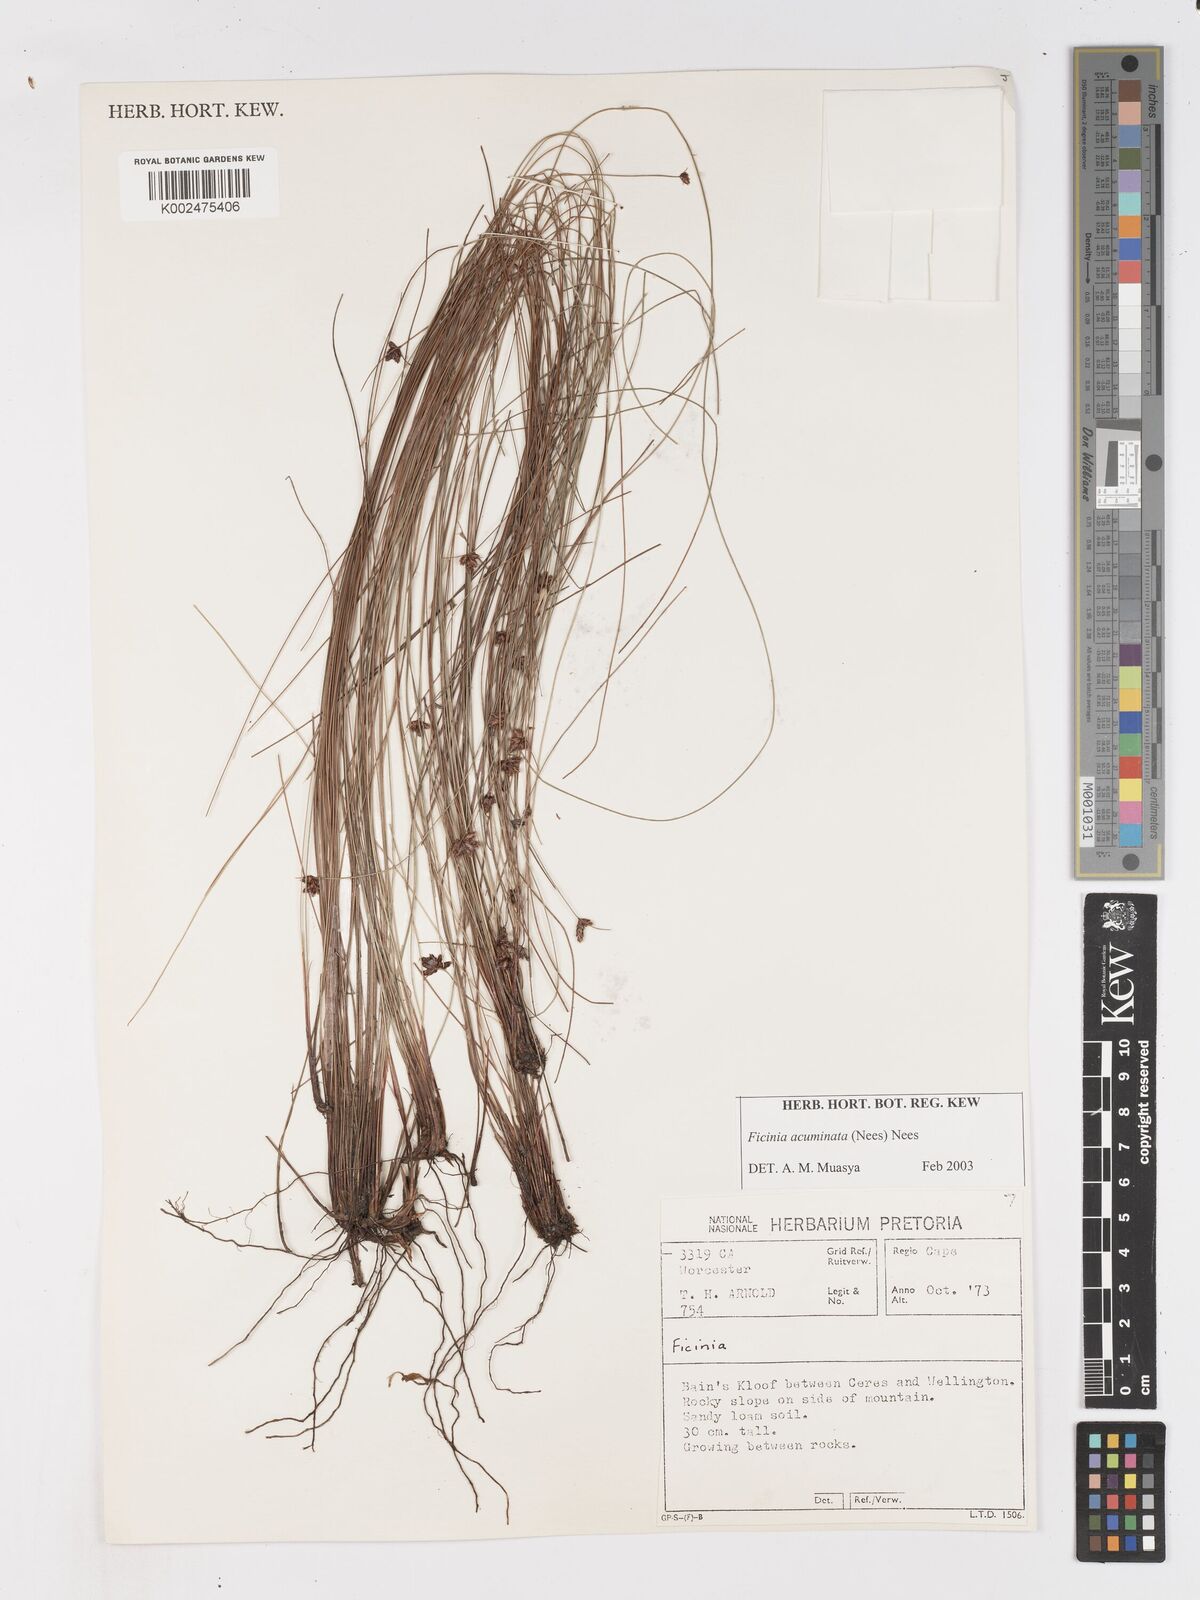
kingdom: Plantae
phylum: Tracheophyta
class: Liliopsida
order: Poales
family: Cyperaceae
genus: Ficinia
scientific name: Ficinia acuminata
